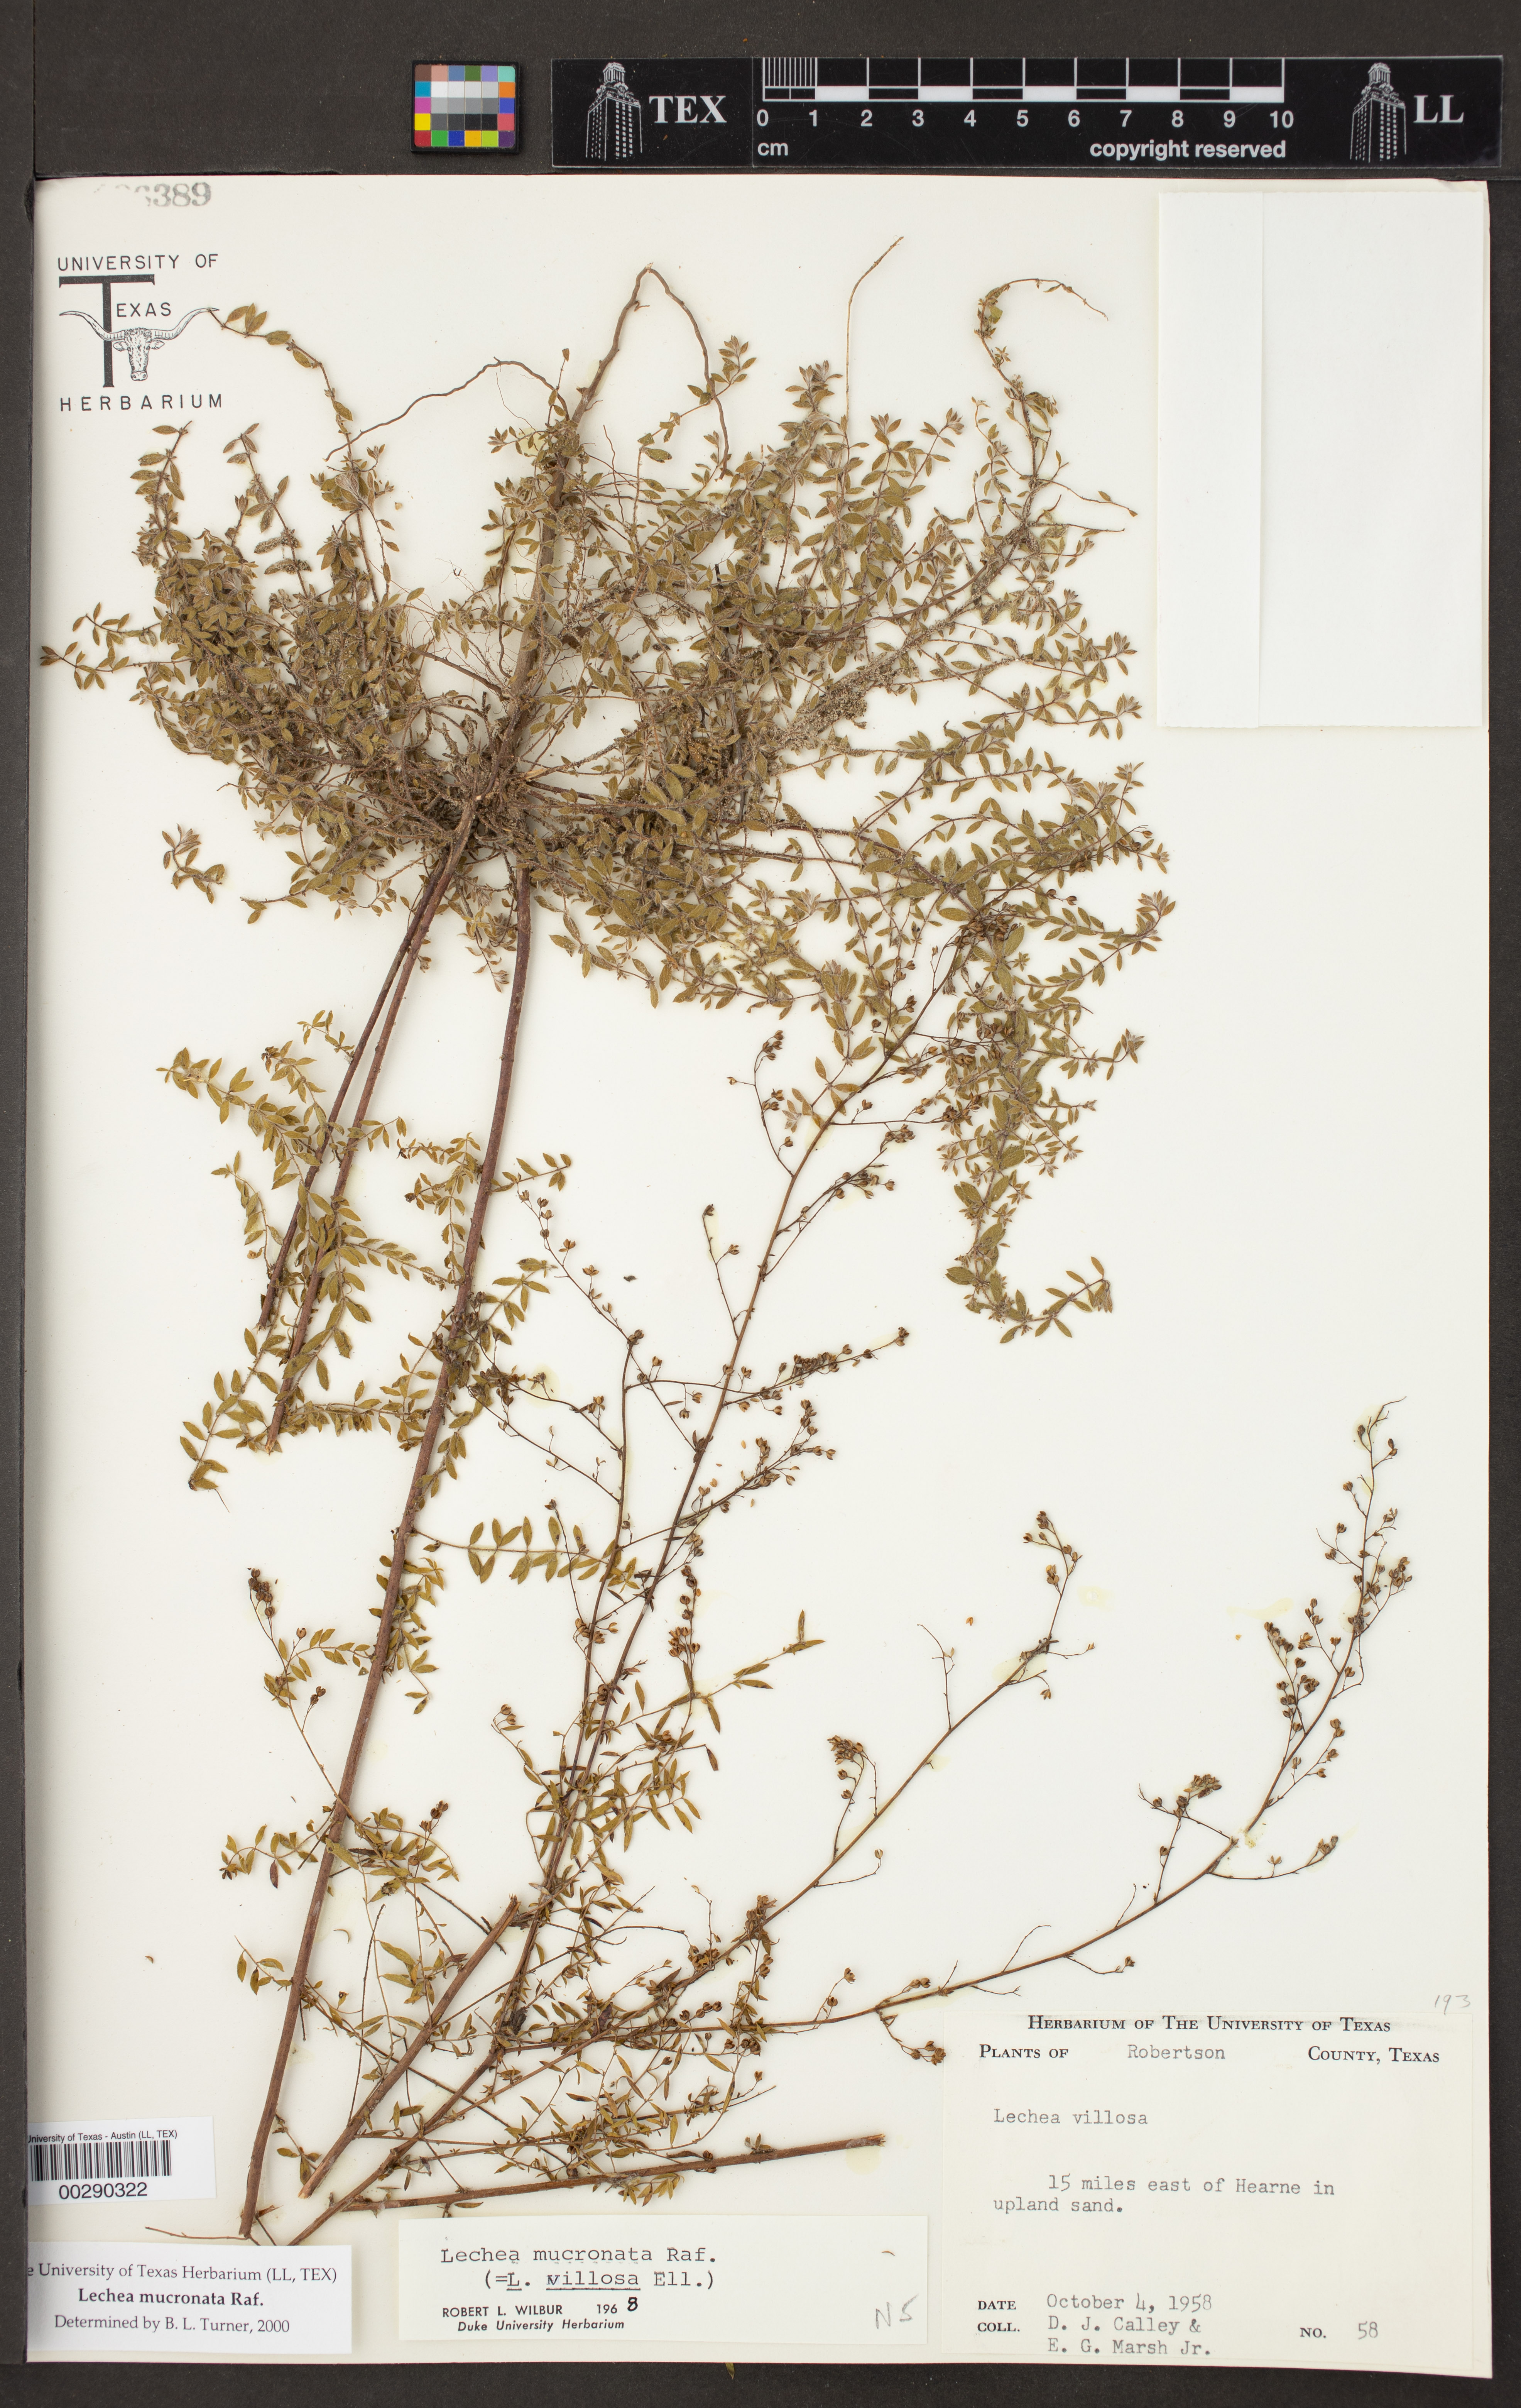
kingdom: Plantae
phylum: Tracheophyta
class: Magnoliopsida
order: Malvales
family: Cistaceae
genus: Lechea
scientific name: Lechea mucronata
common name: Hairy pinweed
